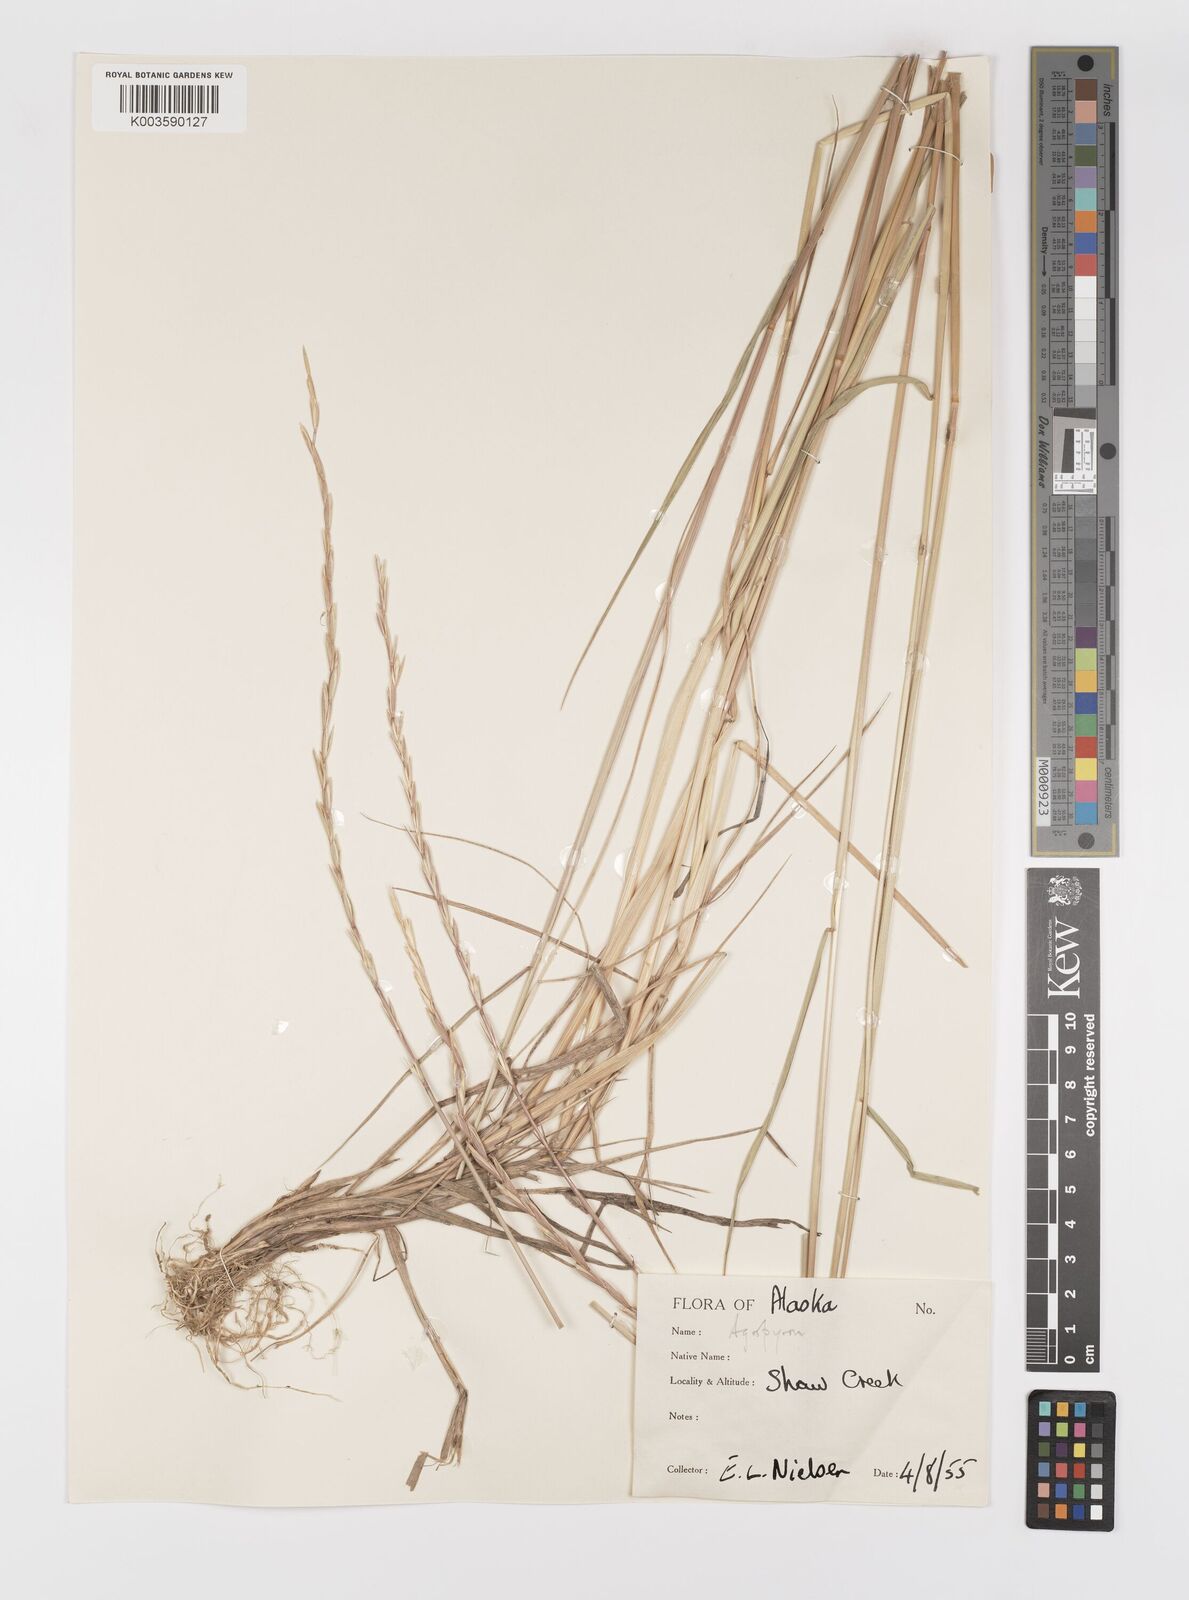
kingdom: Plantae
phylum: Tracheophyta
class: Liliopsida
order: Poales
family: Poaceae
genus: Elymus
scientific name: Elymus smithii
